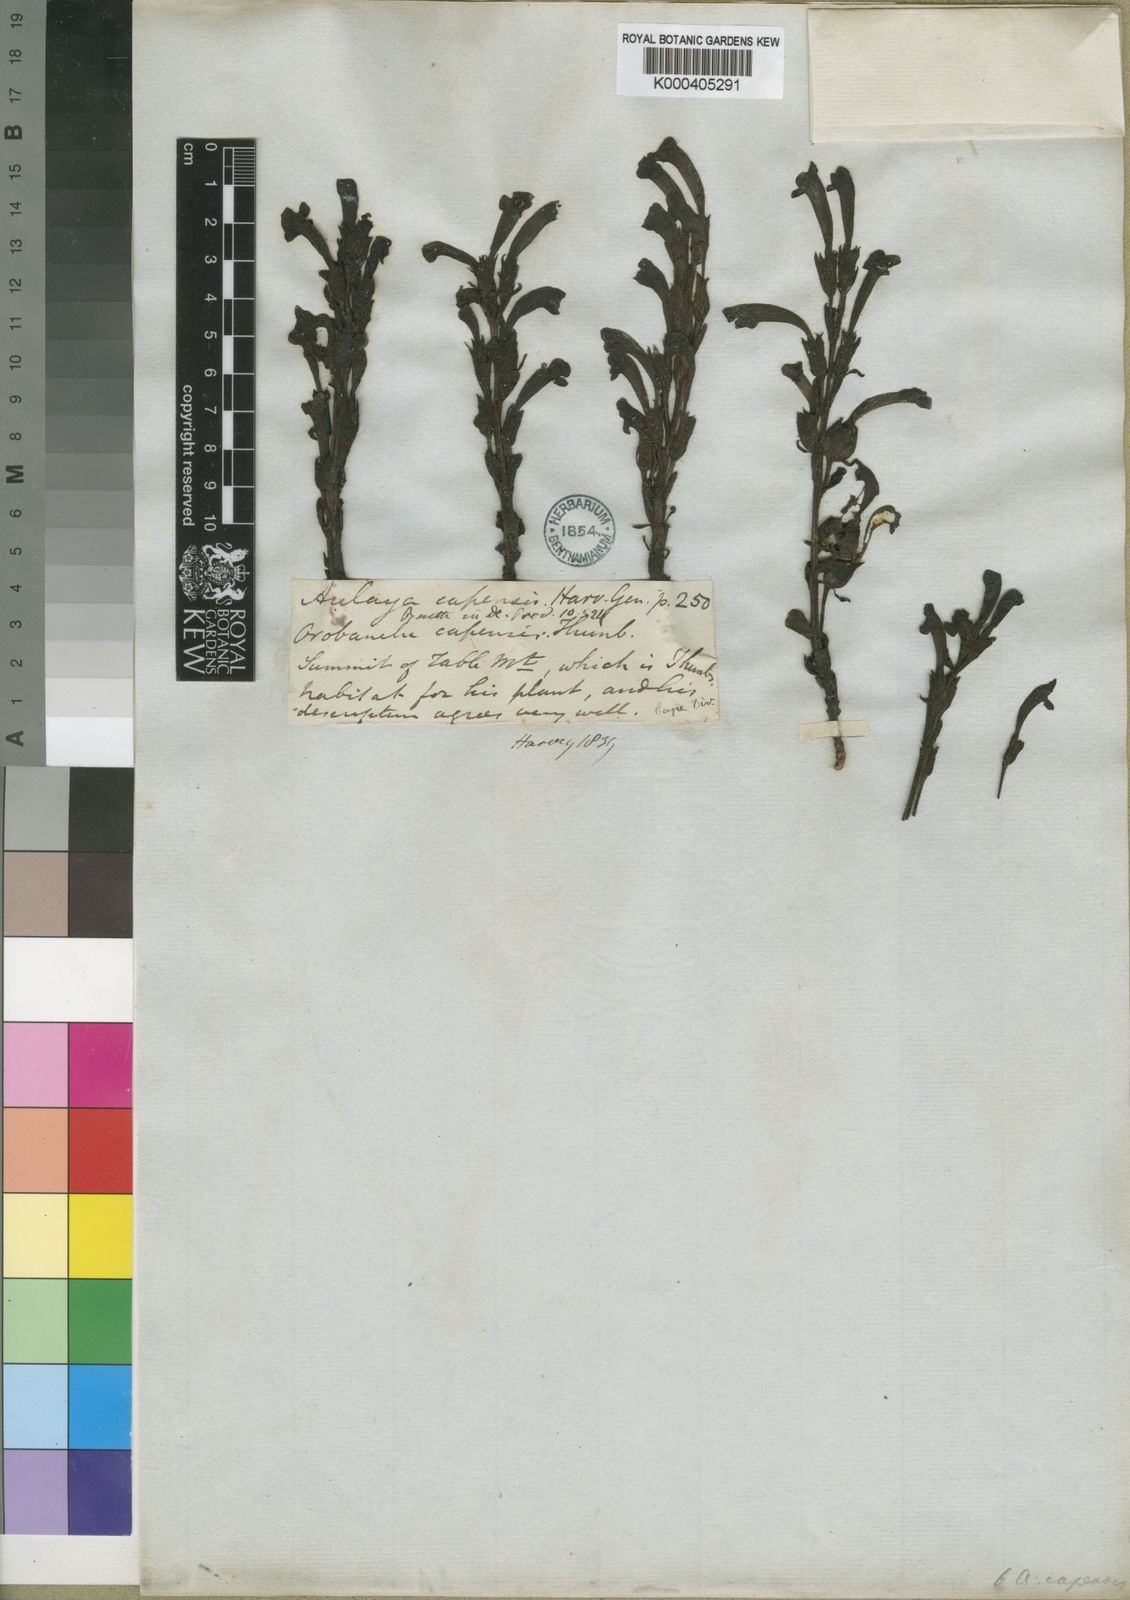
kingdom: Plantae
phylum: Tracheophyta
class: Magnoliopsida
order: Lamiales
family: Orobanchaceae
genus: Harveya
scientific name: Harveya bolusii
